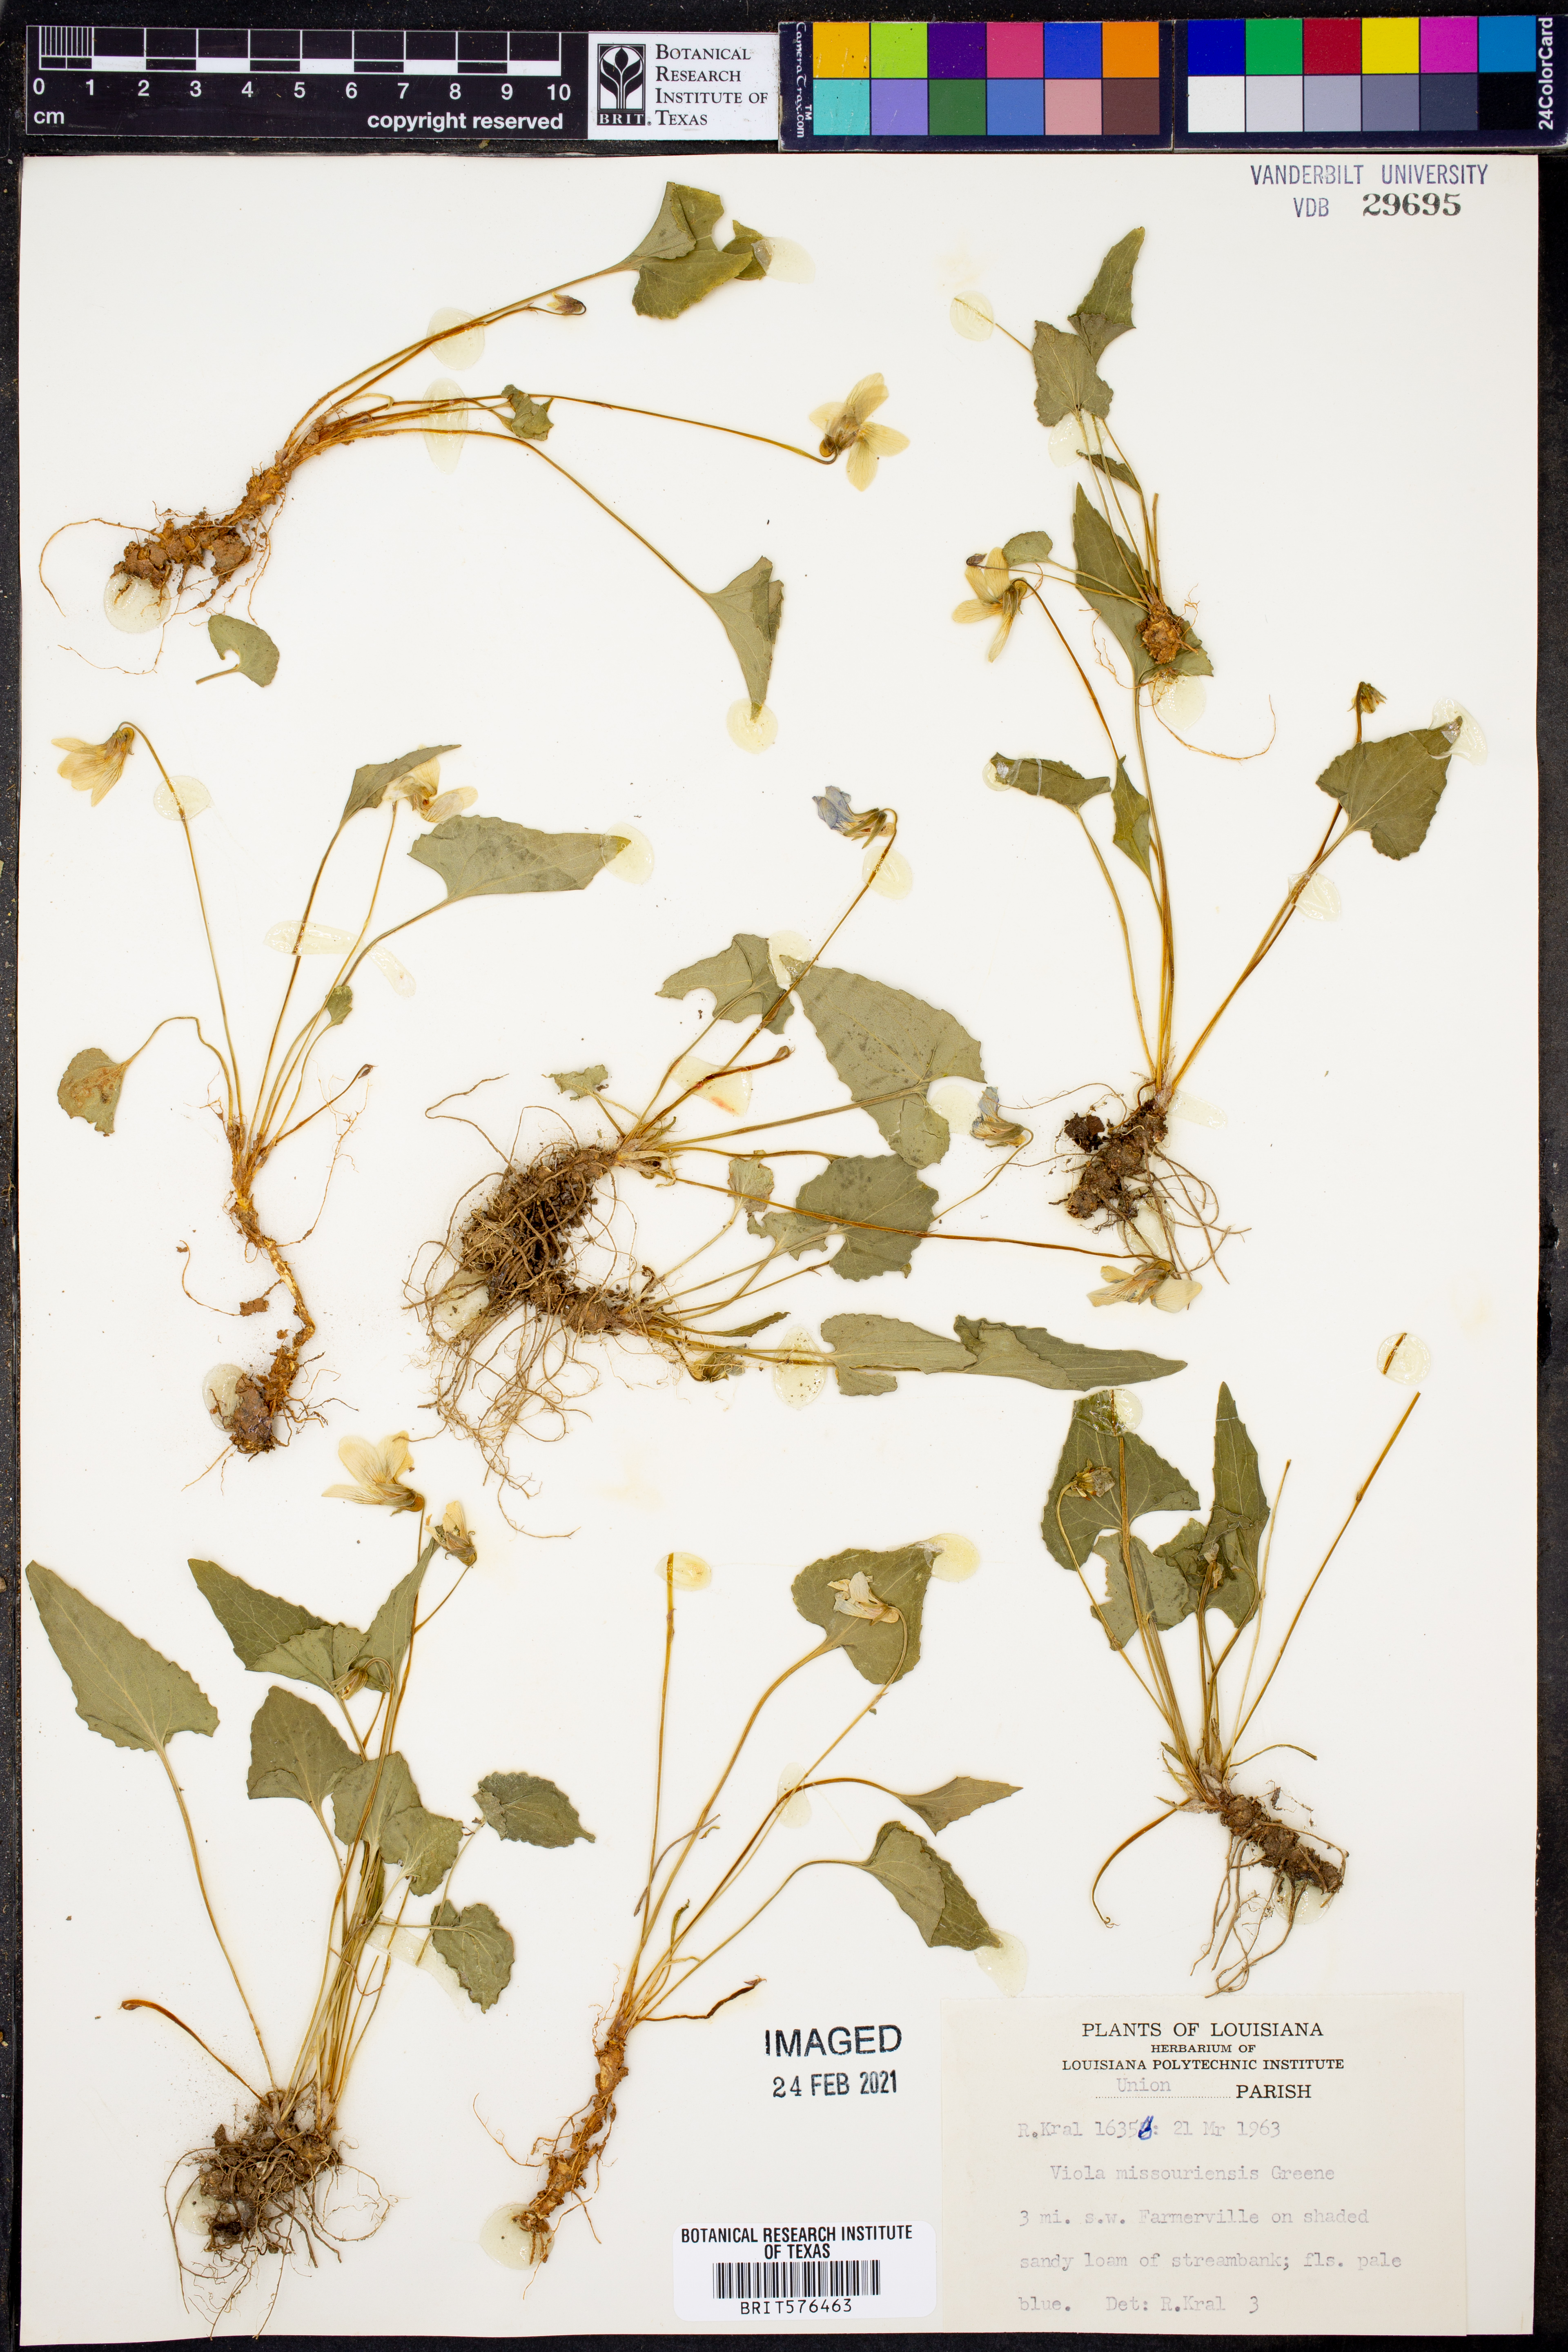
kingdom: Plantae
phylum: Tracheophyta
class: Magnoliopsida
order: Malpighiales
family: Violaceae
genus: Viola
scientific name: Viola missouriensis
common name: Missouri violet
